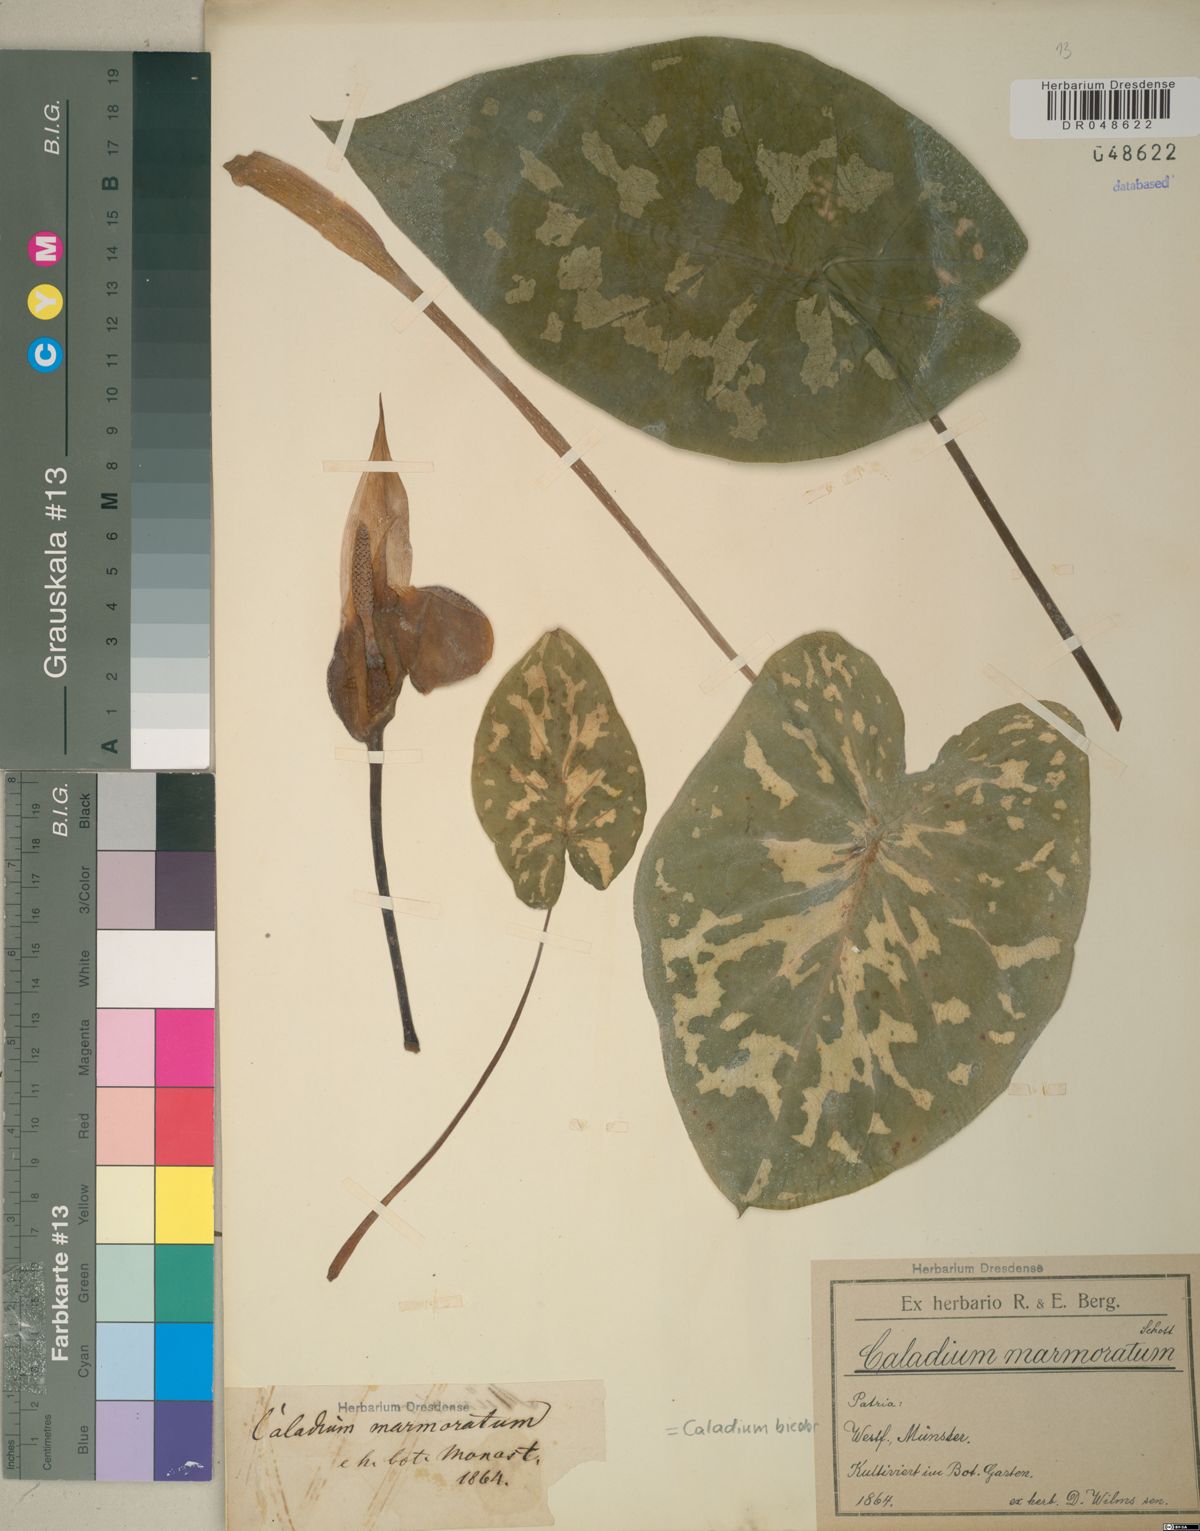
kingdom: Plantae
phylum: Tracheophyta
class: Liliopsida
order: Alismatales
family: Araceae
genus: Caladium
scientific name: Caladium bicolor
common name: Artist's pallet
